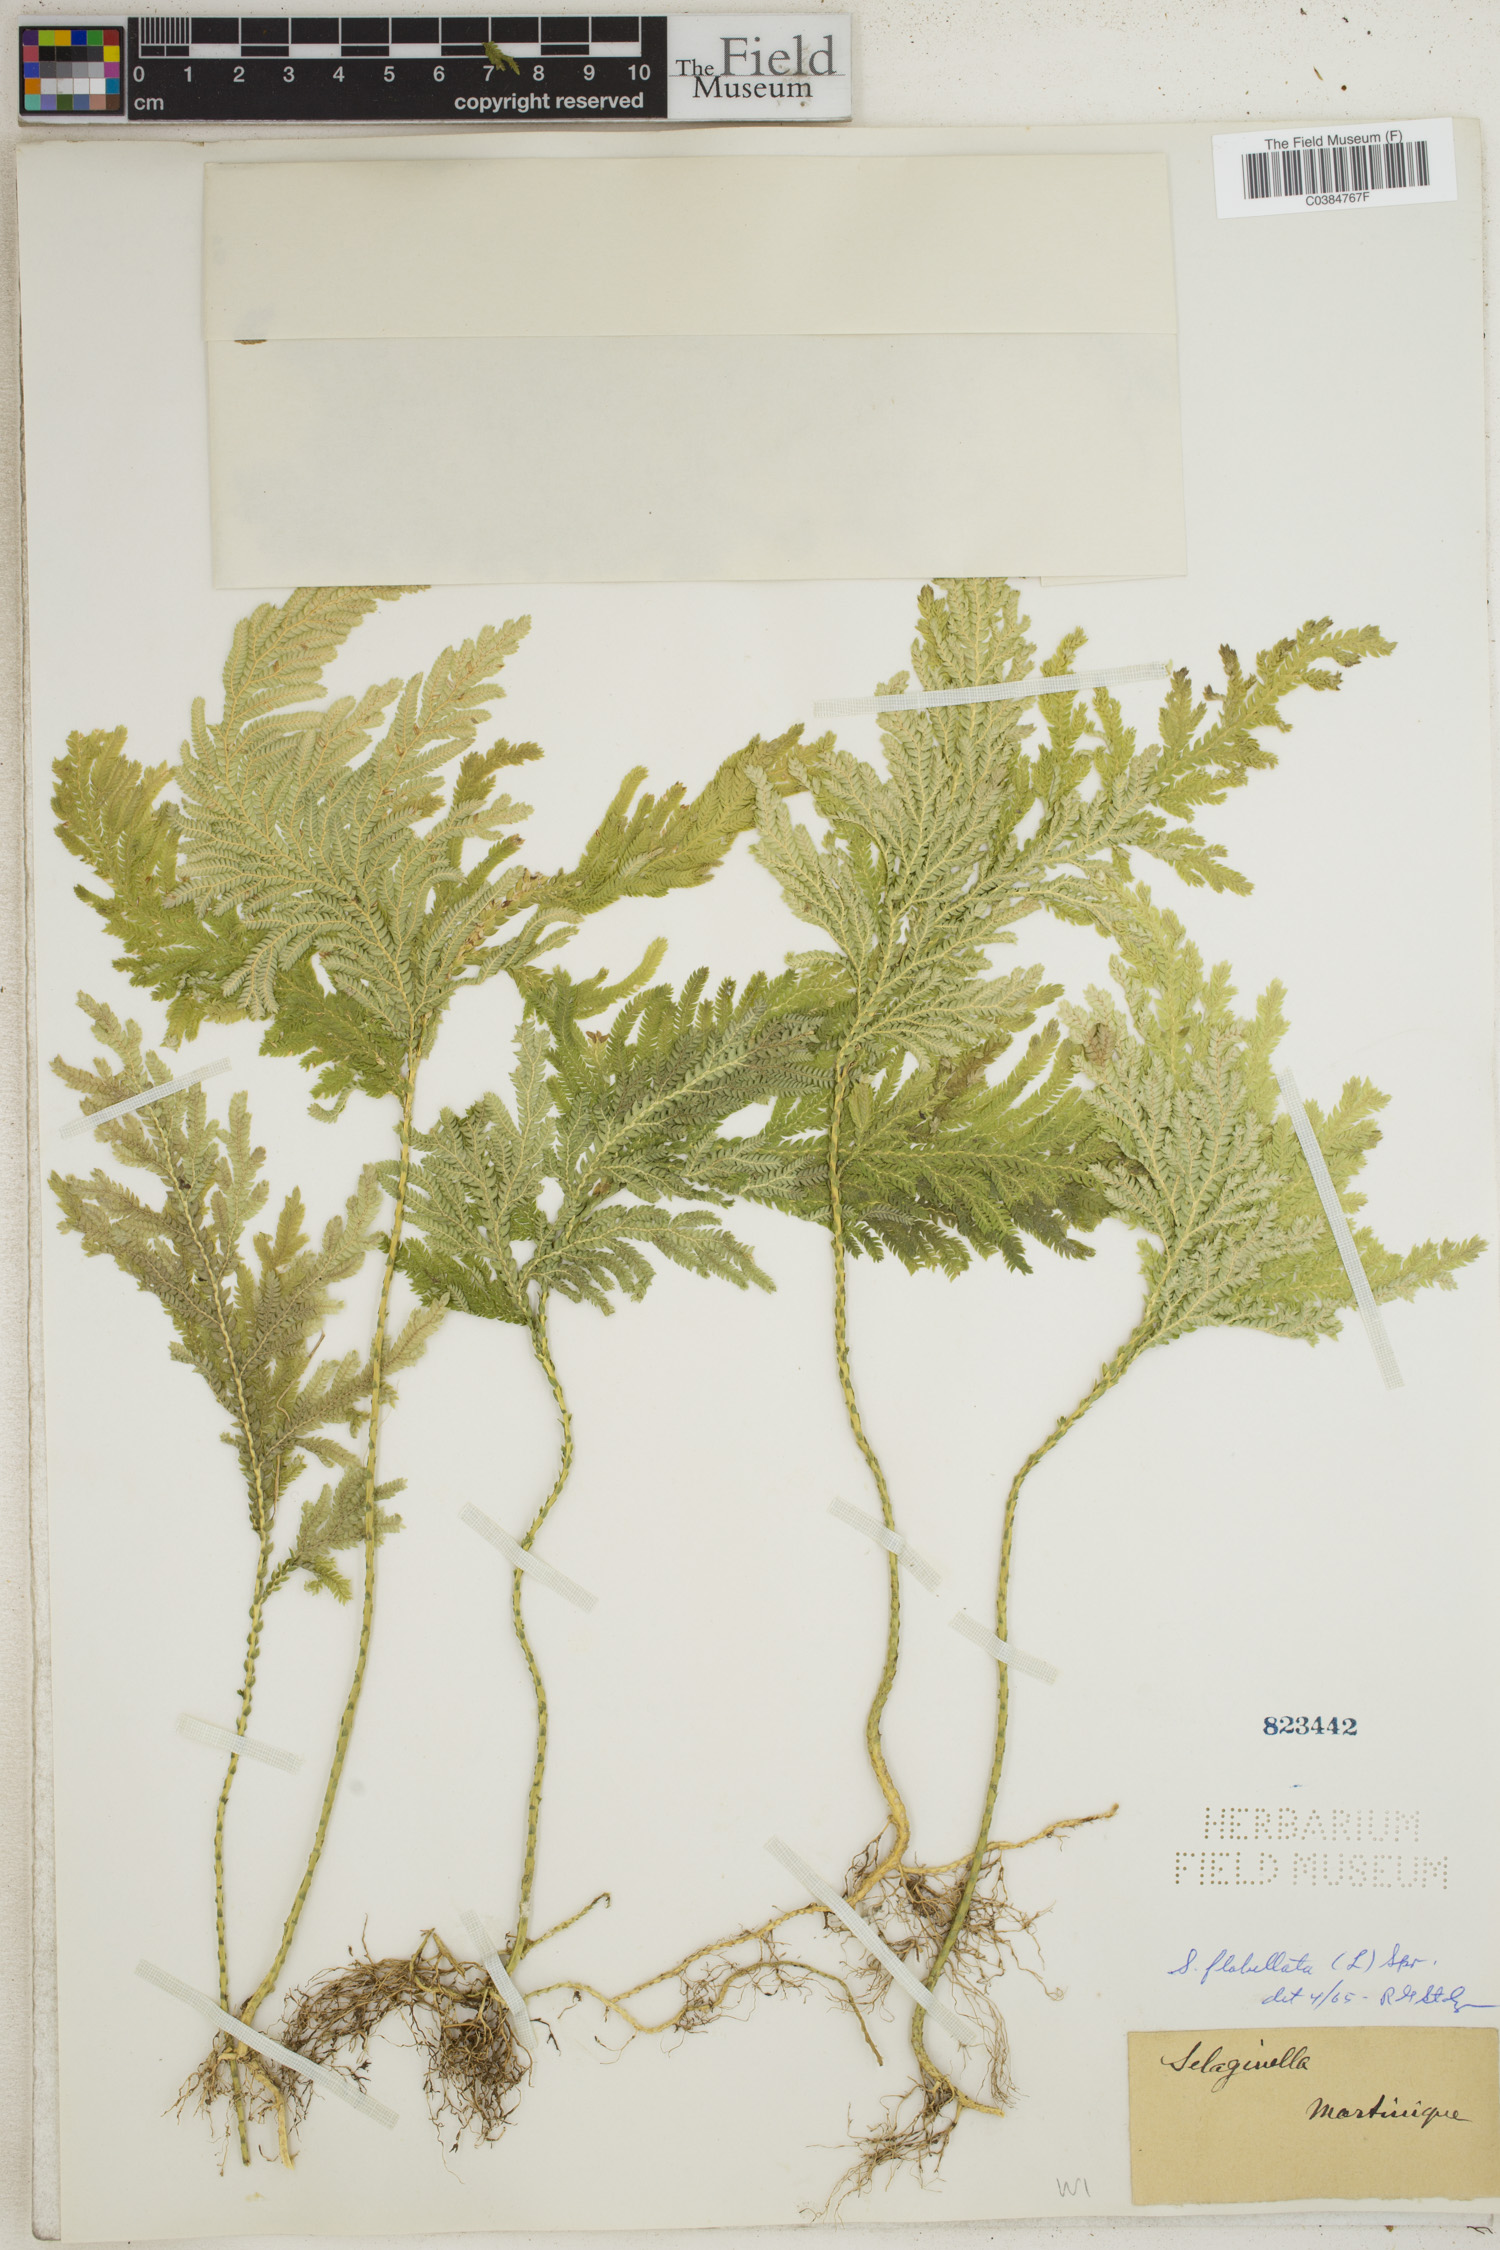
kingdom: Plantae
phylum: Tracheophyta
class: Lycopodiopsida
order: Selaginellales
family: Selaginellaceae
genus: Selaginella
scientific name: Selaginella flabellata
